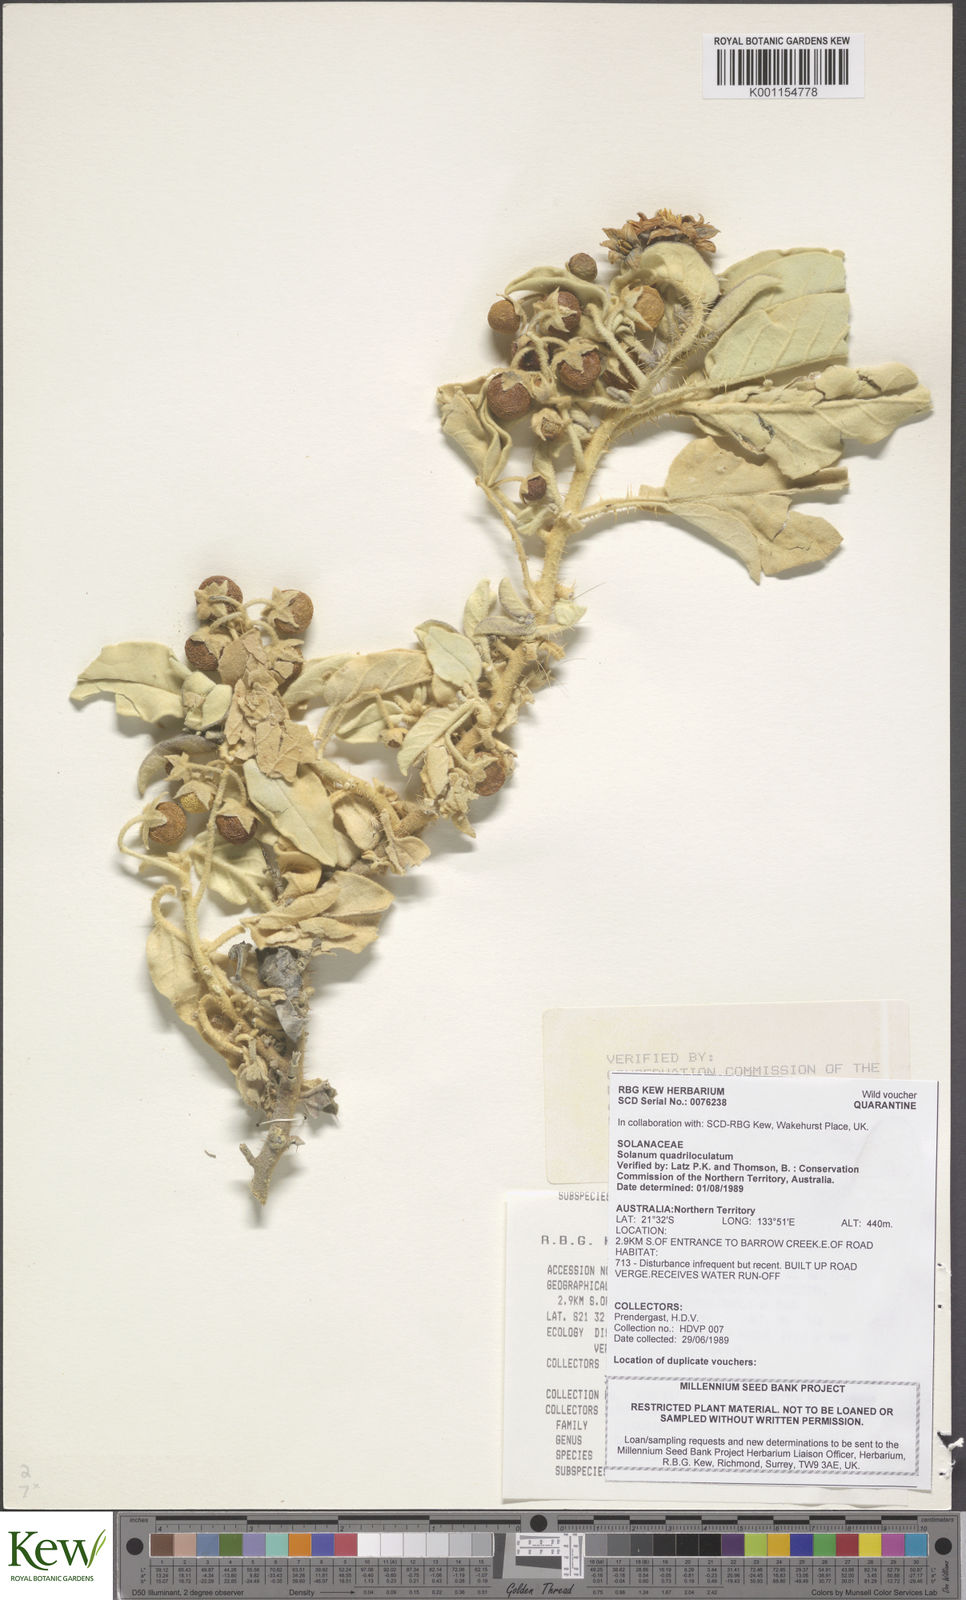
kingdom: Plantae
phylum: Tracheophyta
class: Magnoliopsida
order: Solanales
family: Solanaceae
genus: Solanum
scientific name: Solanum quadriloculatum
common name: Wild tomato
